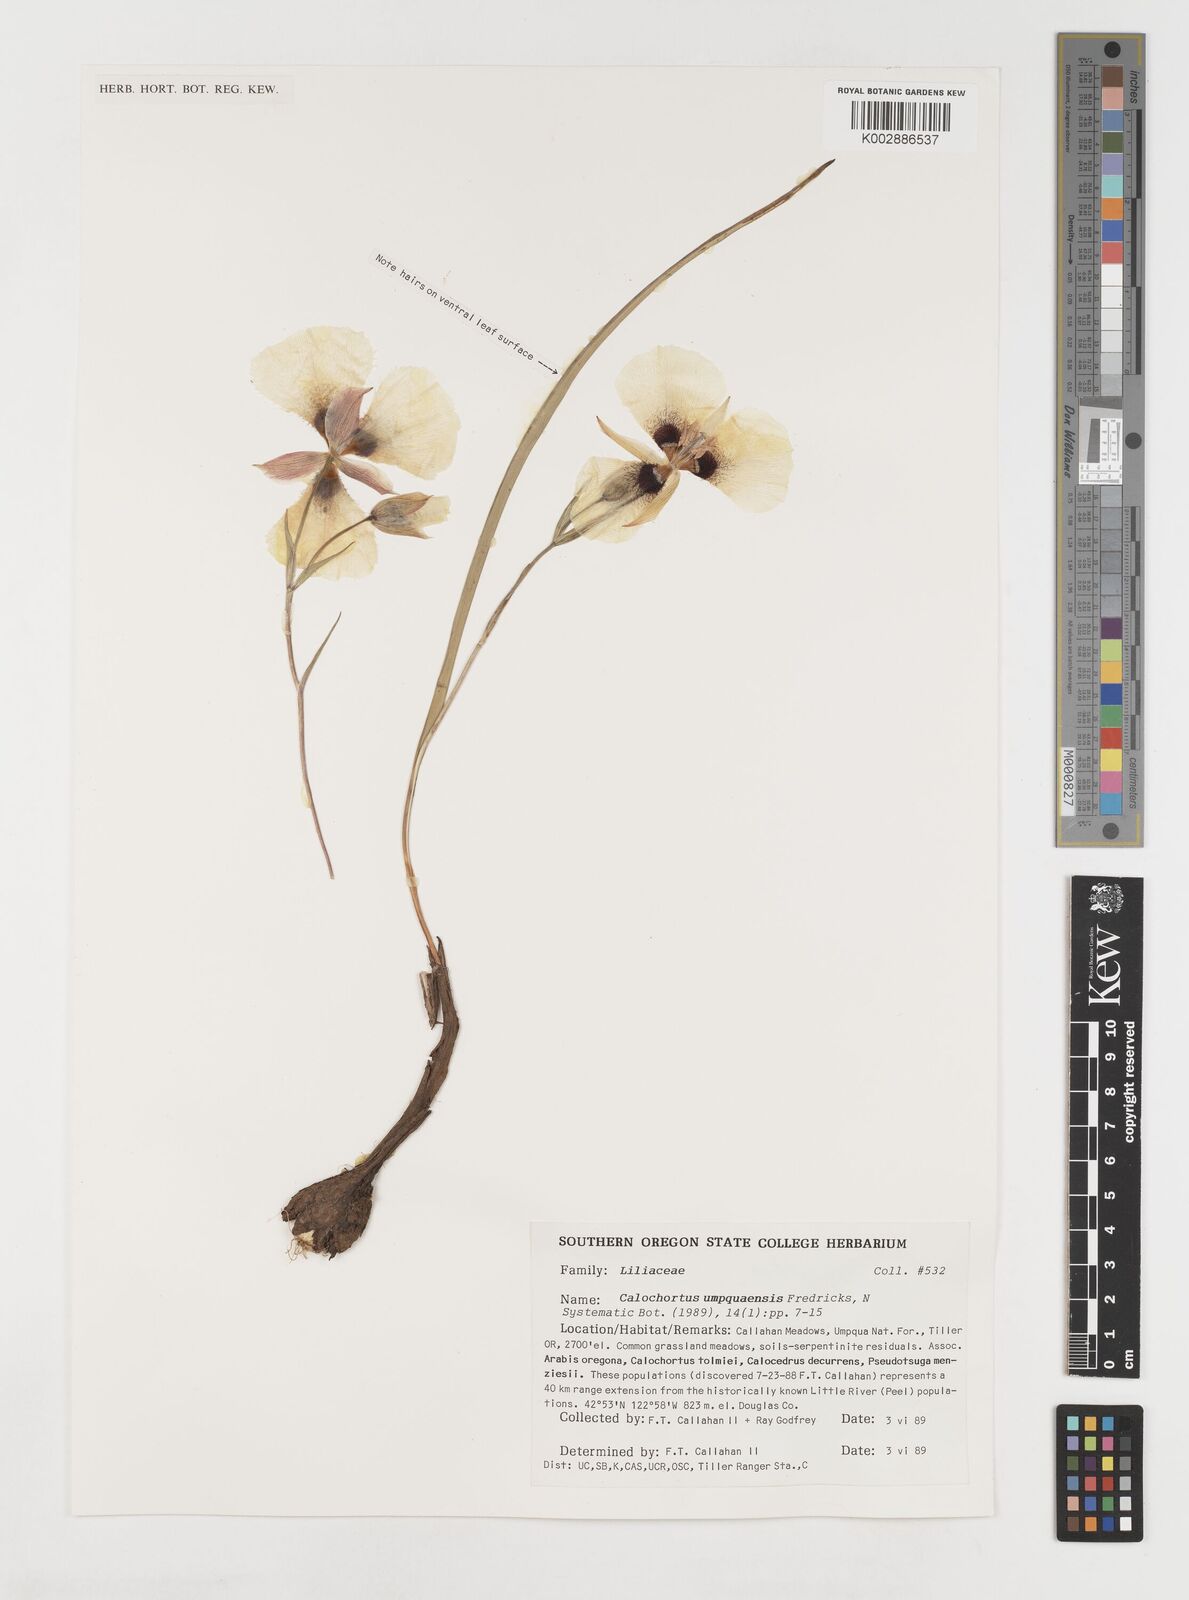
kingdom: Plantae
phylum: Tracheophyta
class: Liliopsida
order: Liliales
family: Liliaceae
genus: Calochortus
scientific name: Calochortus umpquaensis
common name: Umpqua mariposa-lily
